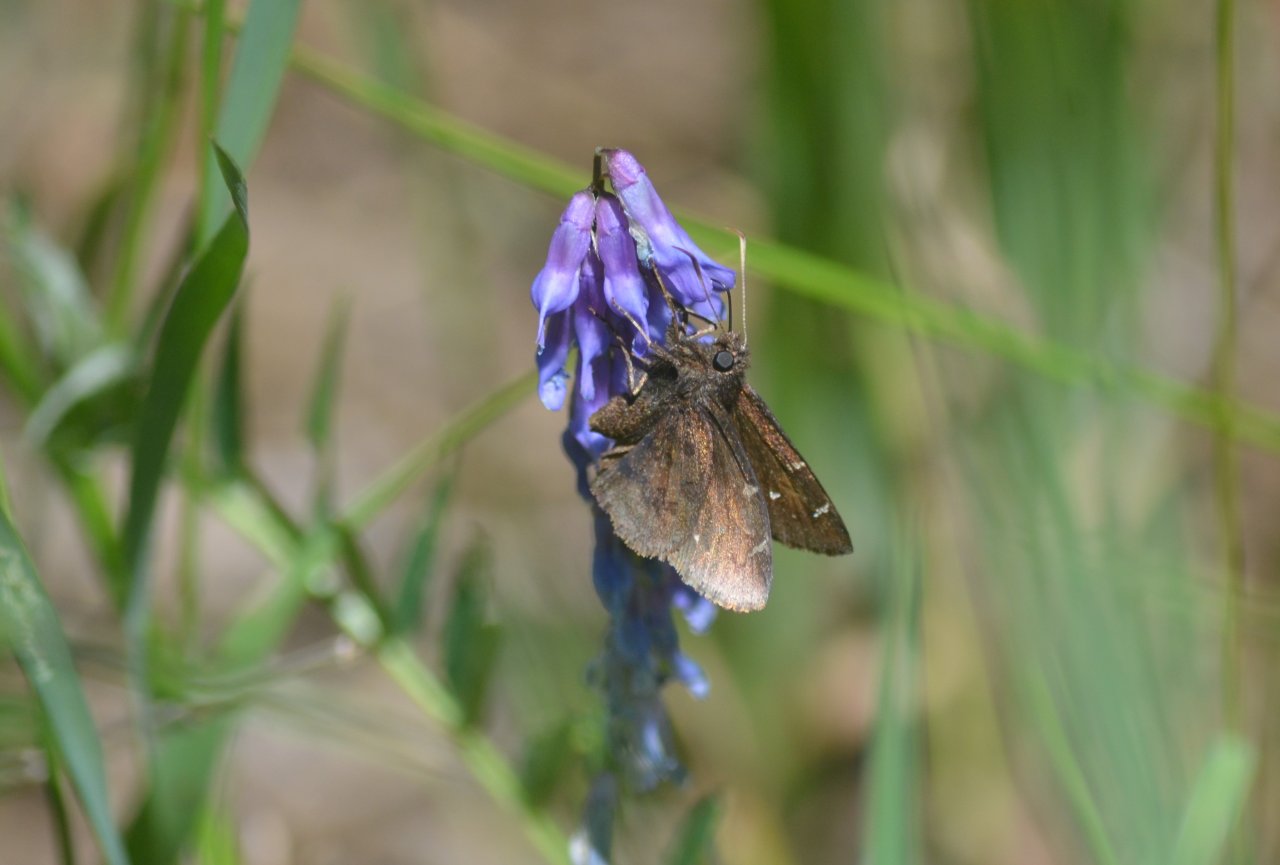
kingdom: Animalia
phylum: Arthropoda
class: Insecta
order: Lepidoptera
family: Hesperiidae
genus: Autochton
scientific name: Autochton
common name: Northern Cloudywing
